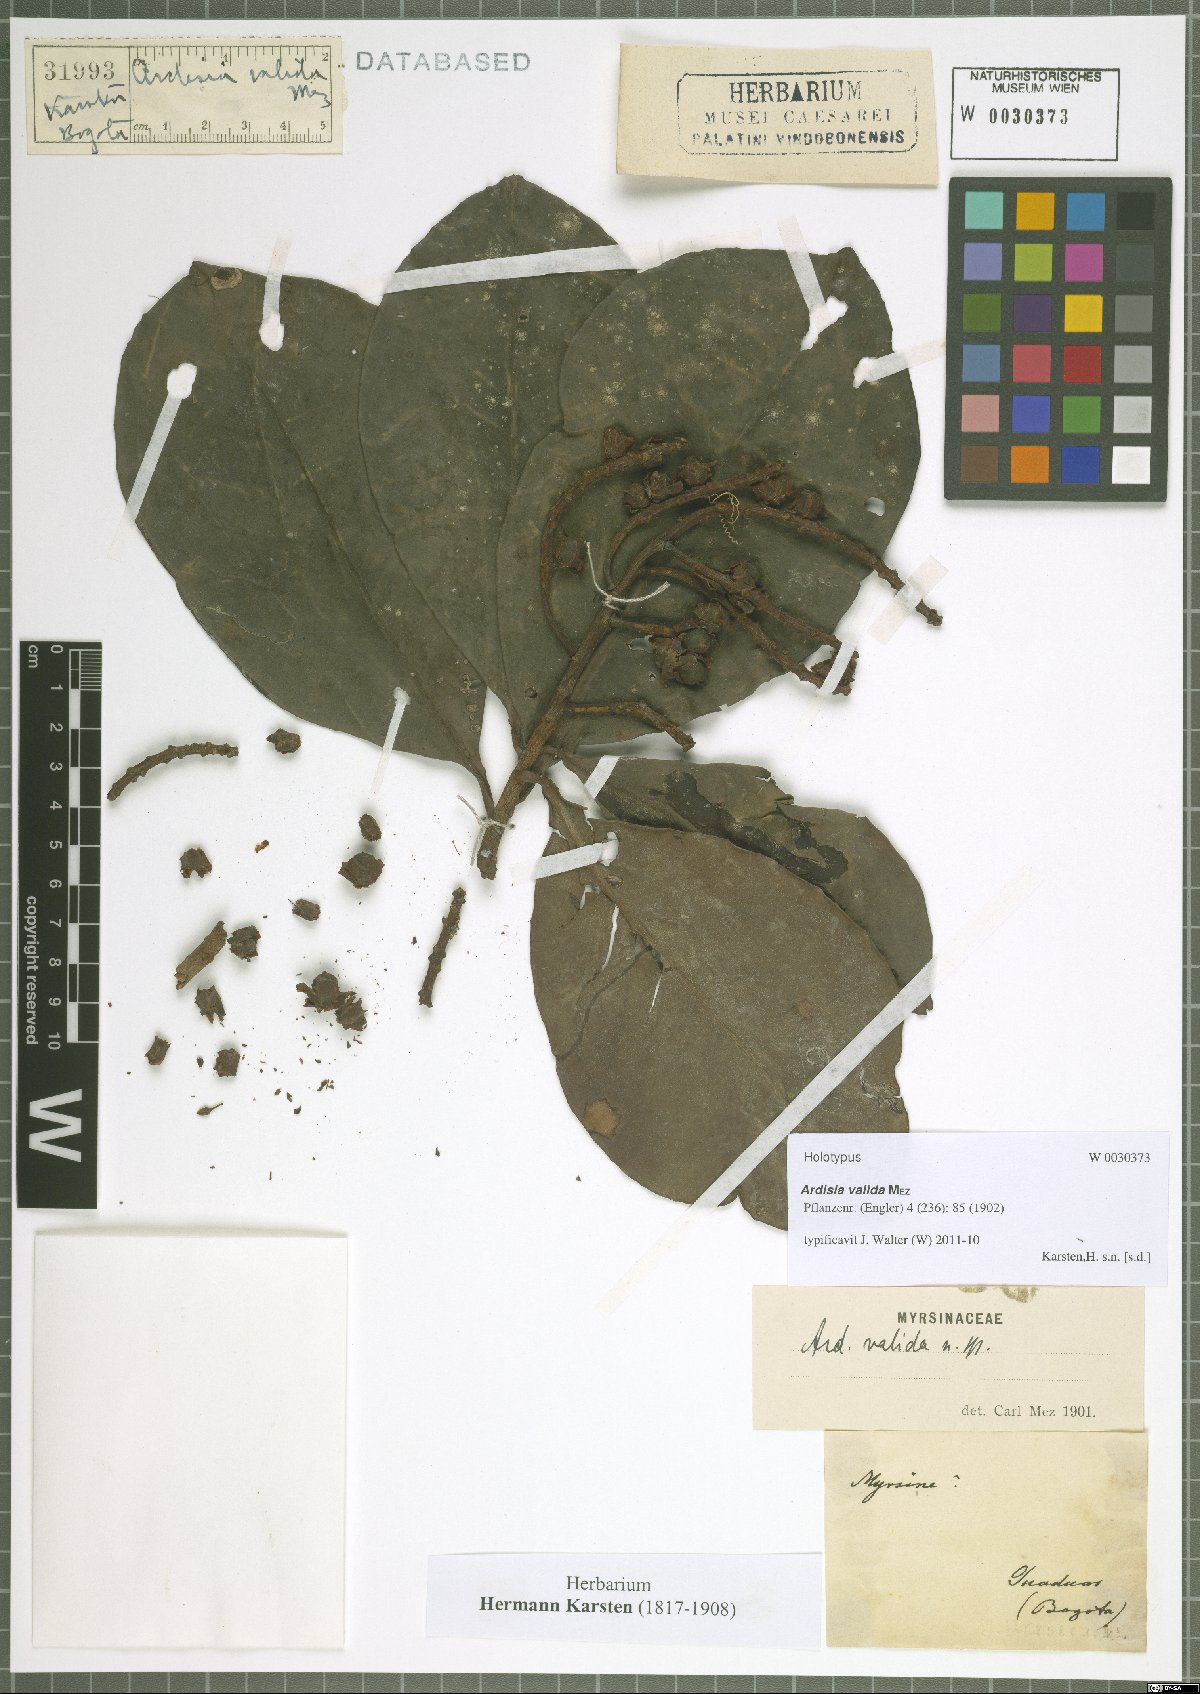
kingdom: Plantae
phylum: Tracheophyta
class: Magnoliopsida
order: Ericales
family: Primulaceae
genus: Ardisia
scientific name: Ardisia foetida
